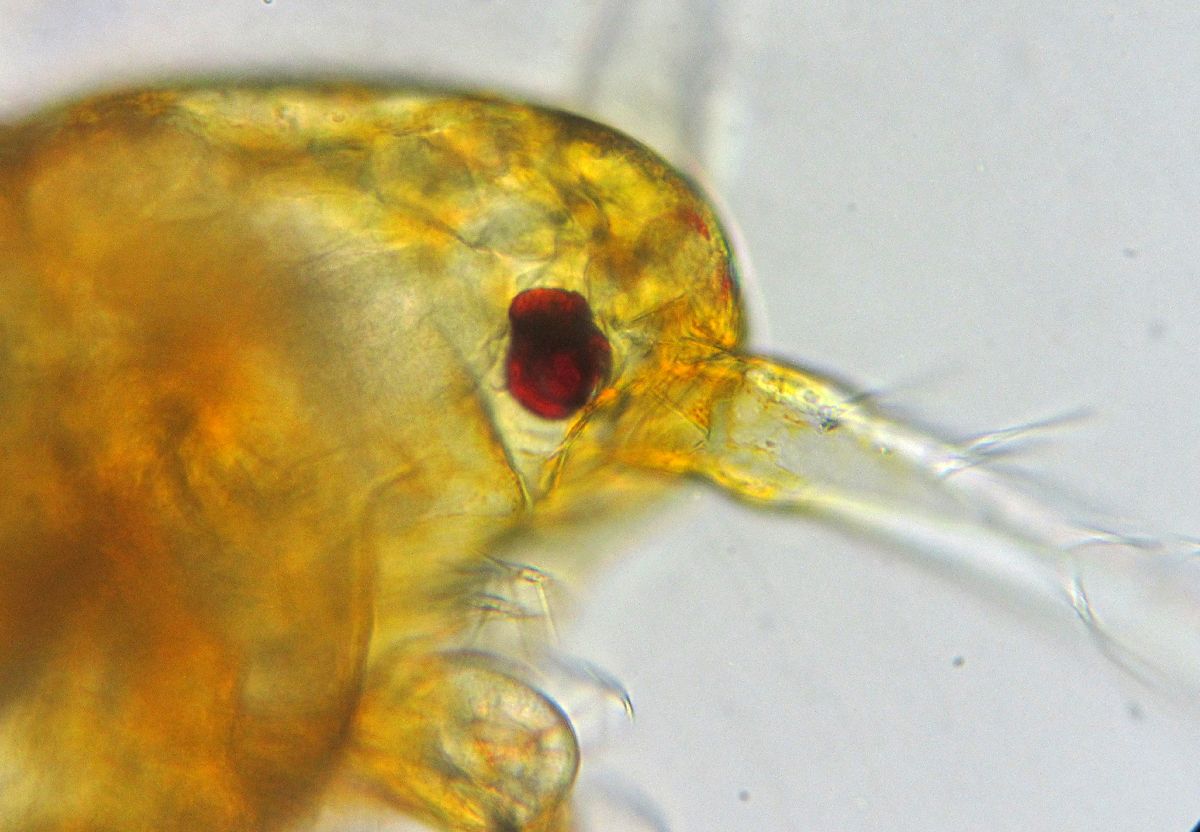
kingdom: Animalia
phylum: Arthropoda
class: Copepoda
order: Calanoida
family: Centropagidae
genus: Centropages
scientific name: Centropages hamatus
